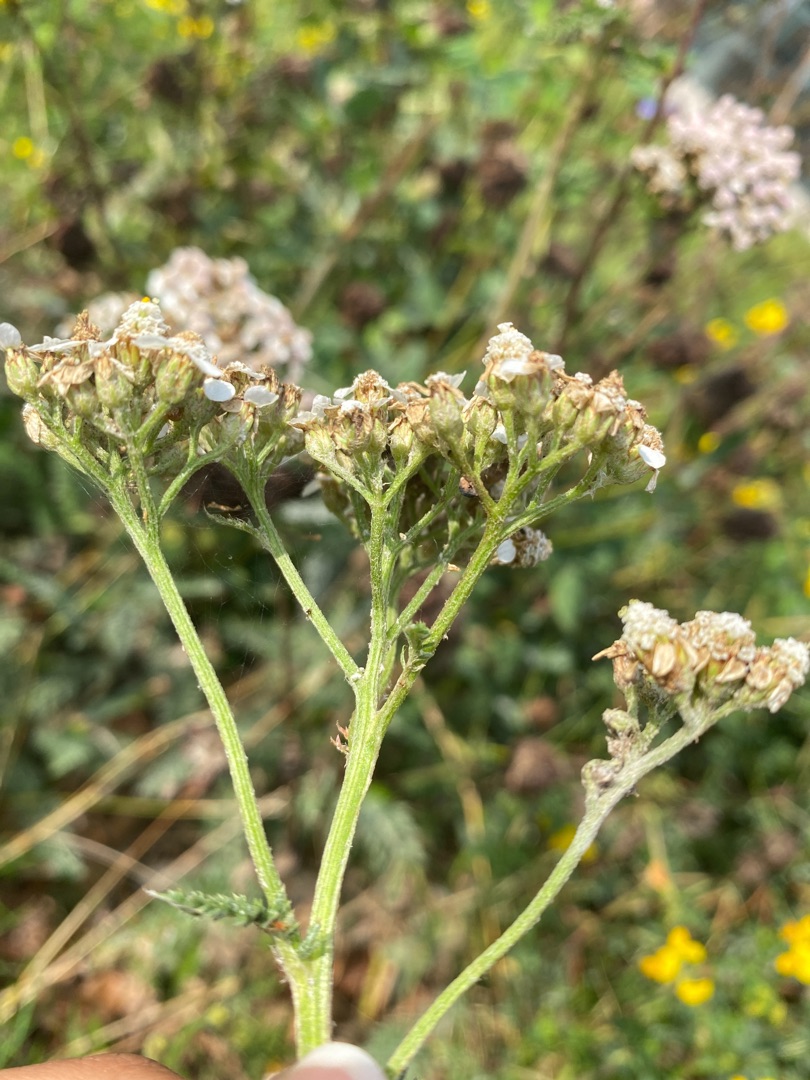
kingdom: Plantae
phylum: Tracheophyta
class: Magnoliopsida
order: Asterales
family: Asteraceae
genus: Achillea
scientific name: Achillea millefolium
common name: Almindelig røllike
